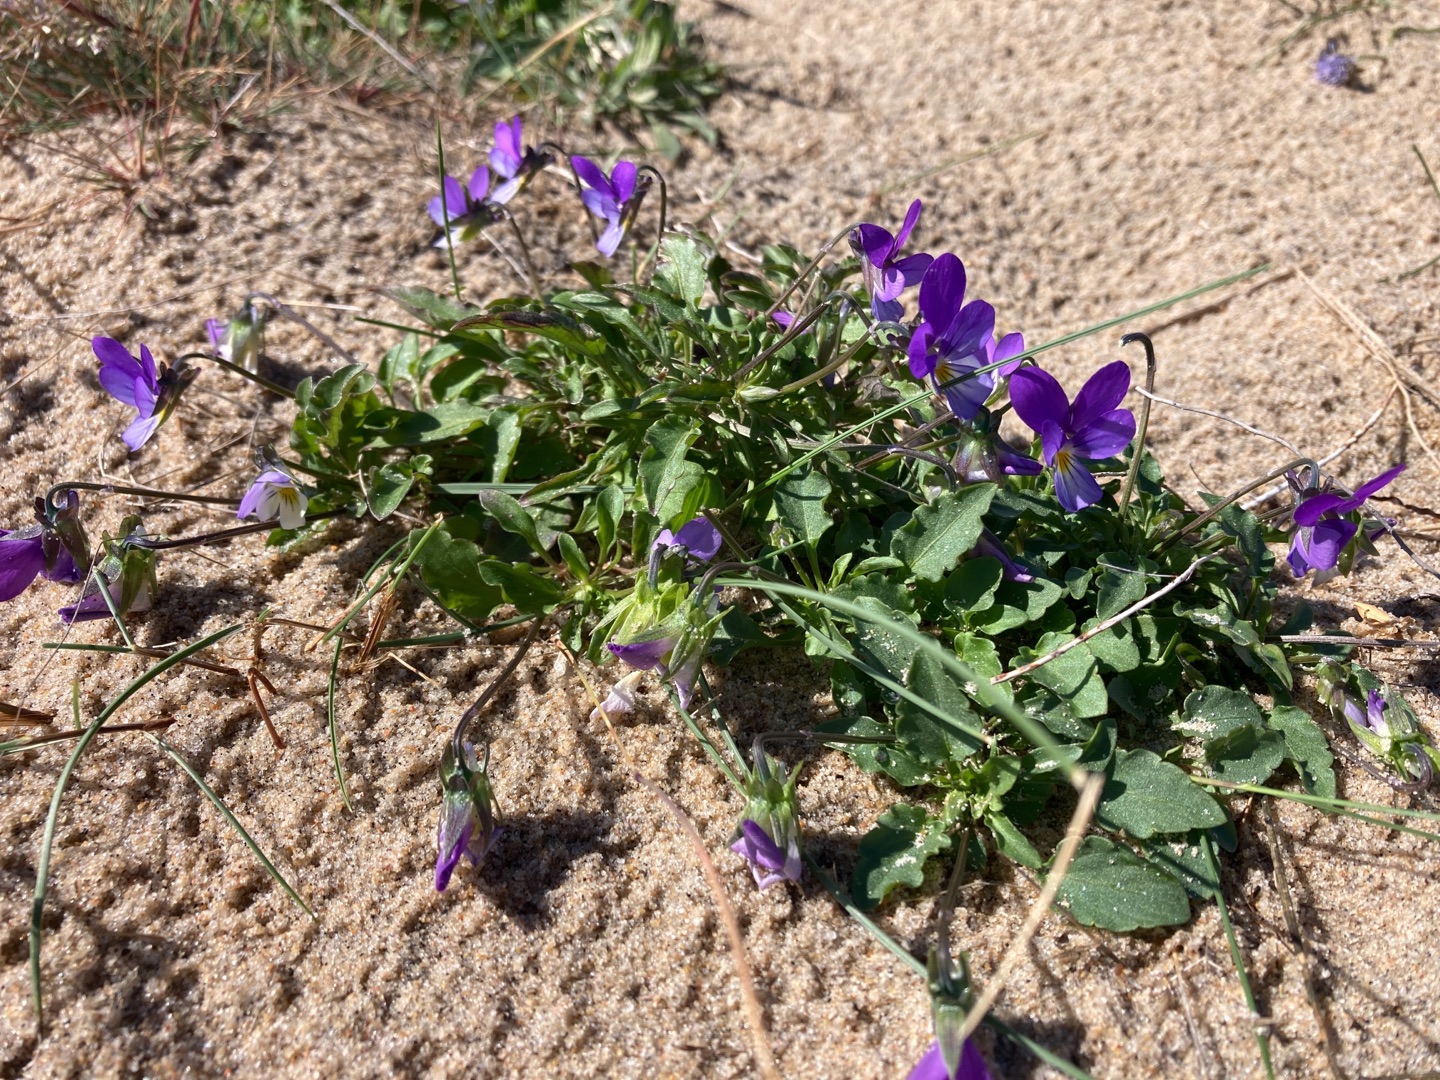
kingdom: Plantae
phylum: Tracheophyta
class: Magnoliopsida
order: Malpighiales
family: Violaceae
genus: Viola
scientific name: Viola tricolor
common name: Stedmoderblomst
